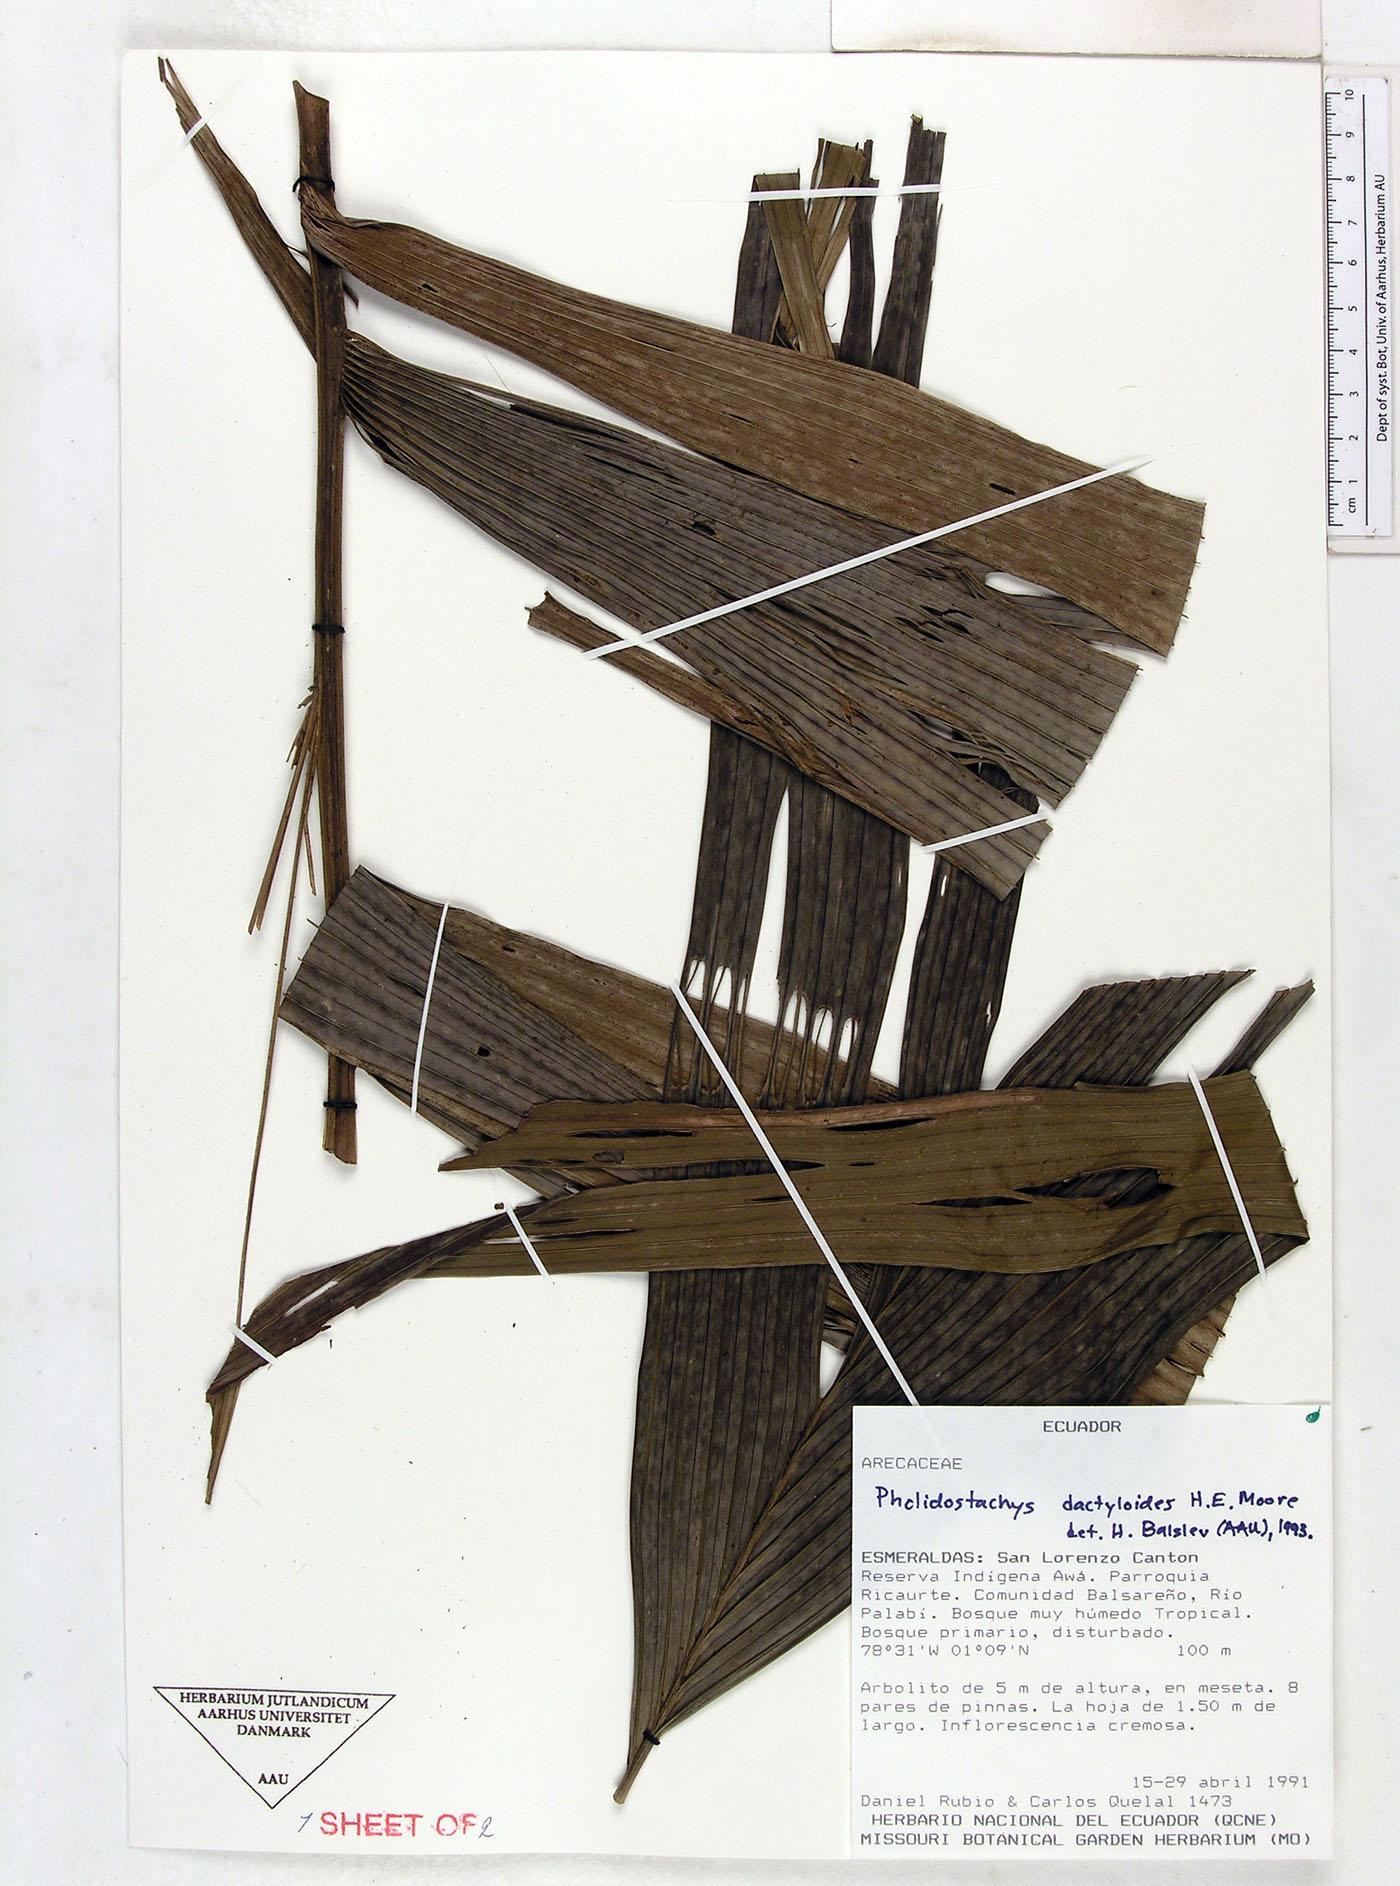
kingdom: Plantae
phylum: Tracheophyta
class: Liliopsida
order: Arecales
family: Arecaceae
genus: Pholidostachys
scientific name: Pholidostachys dactyloides
